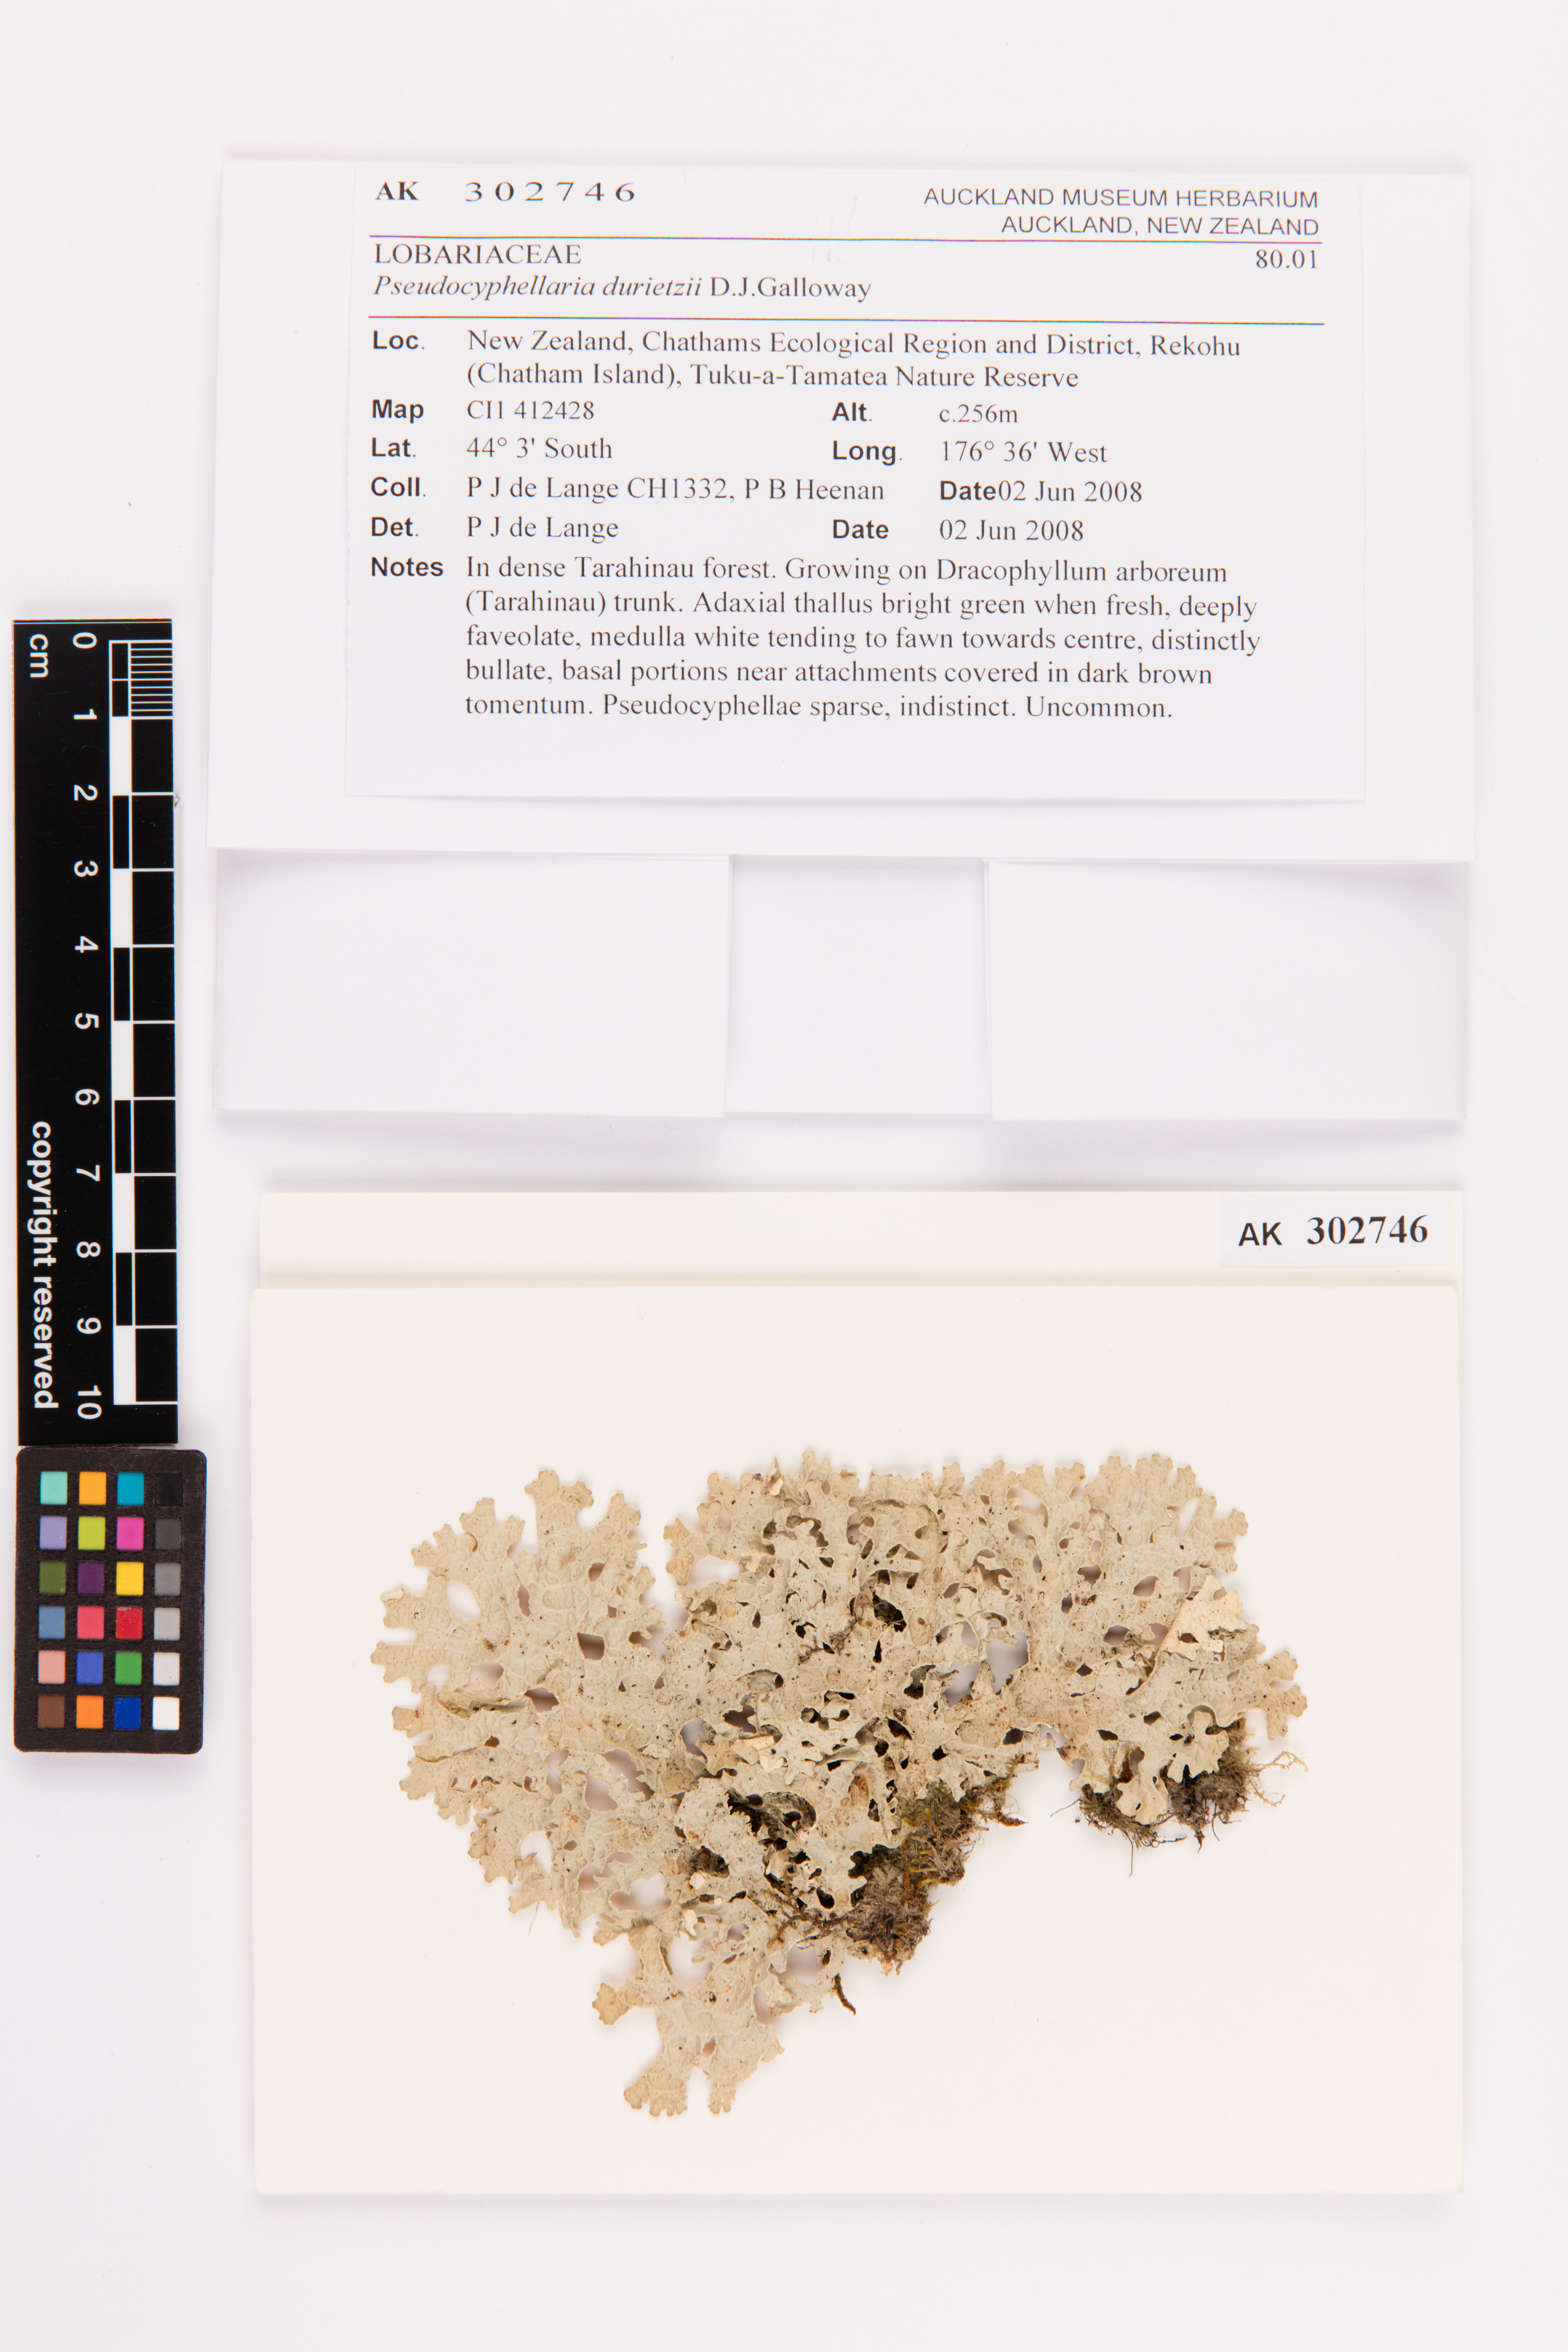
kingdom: Fungi
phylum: Ascomycota
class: Lecanoromycetes
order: Peltigerales
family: Lobariaceae
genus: Pseudocyphellaria
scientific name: Pseudocyphellaria durietzii
